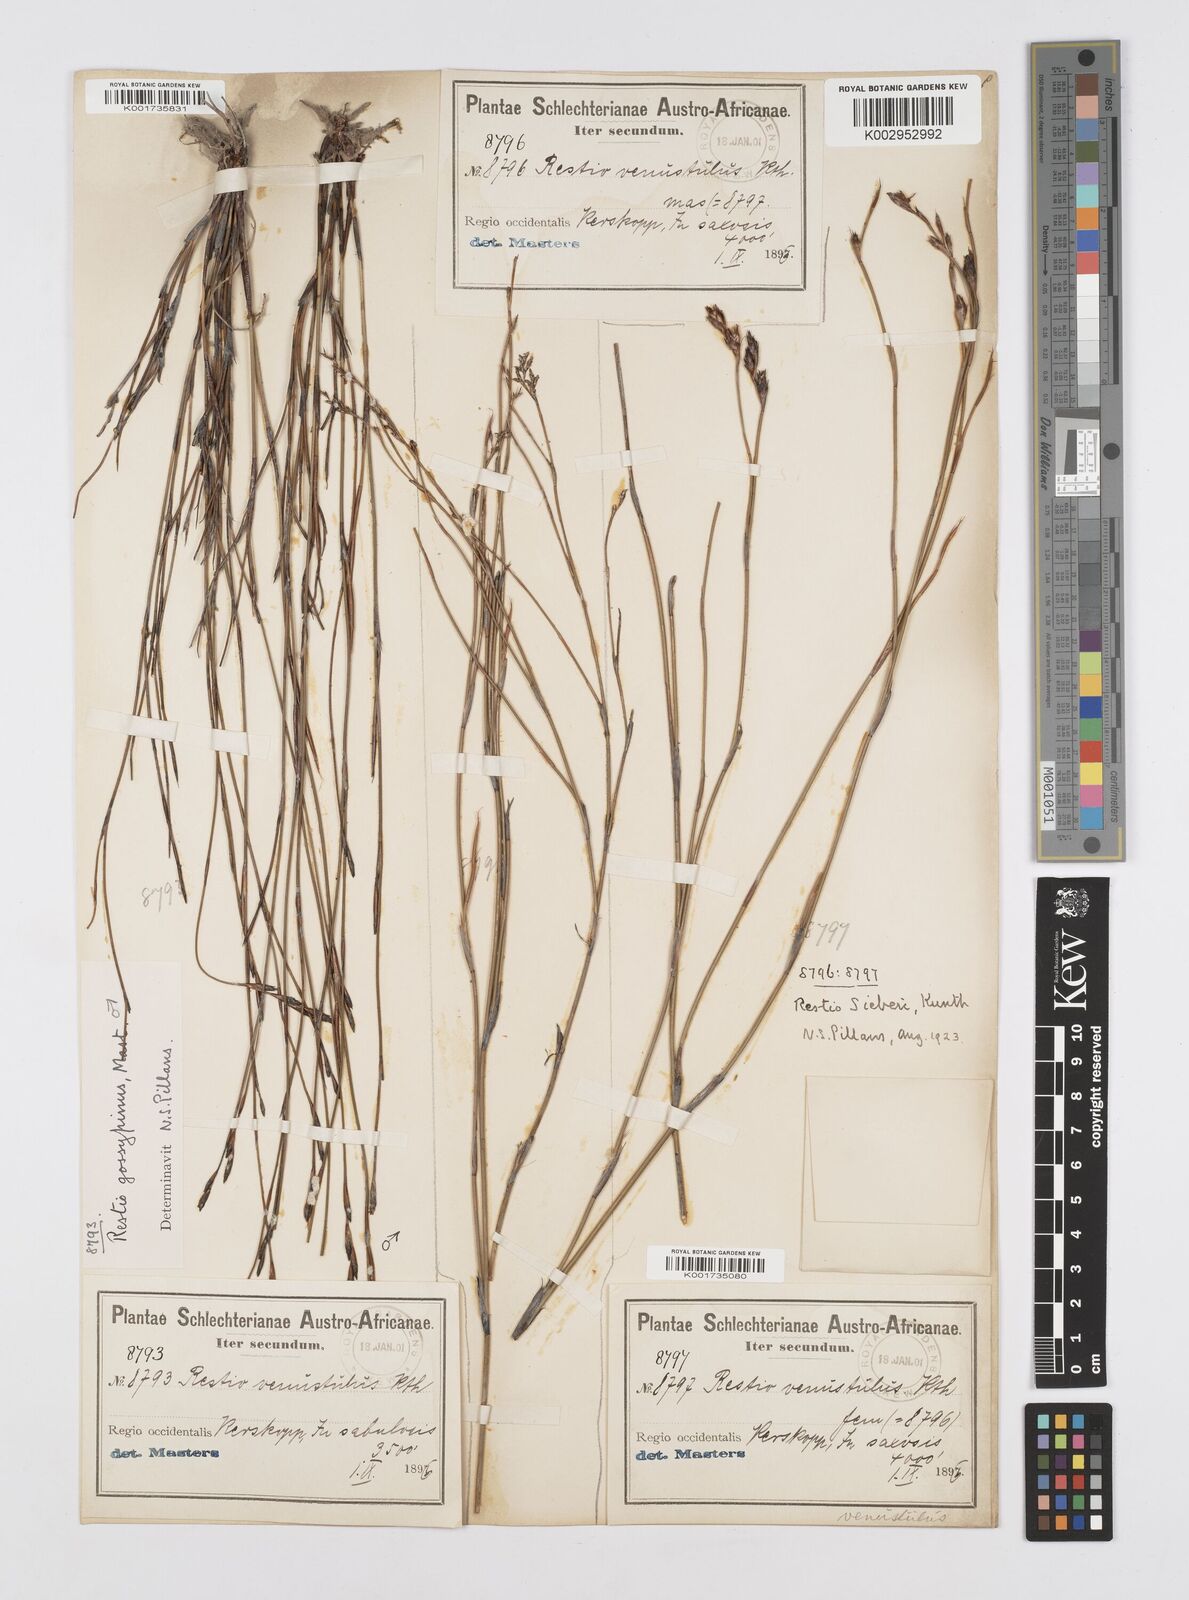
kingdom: Plantae
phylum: Tracheophyta
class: Liliopsida
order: Poales
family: Restionaceae
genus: Restio
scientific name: Restio sieberi
